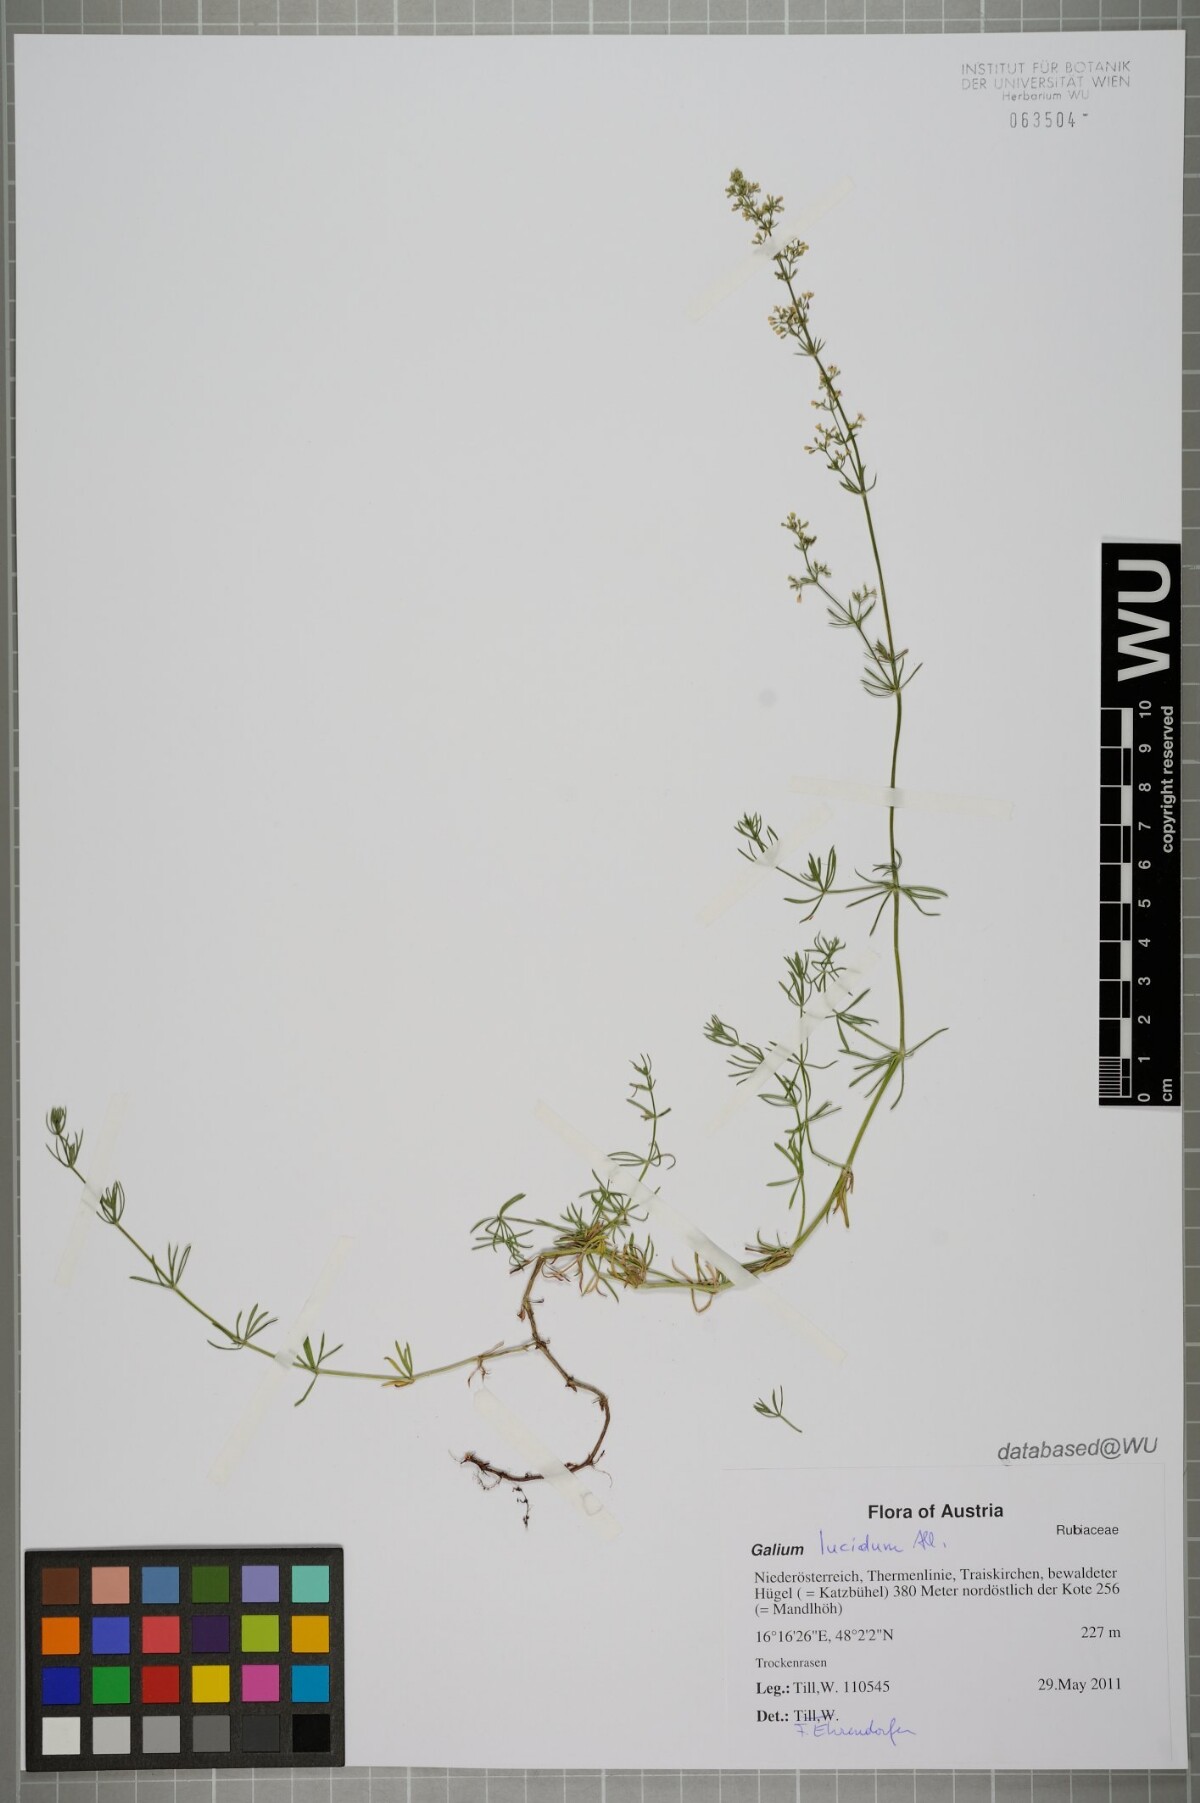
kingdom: Plantae
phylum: Tracheophyta
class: Magnoliopsida
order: Gentianales
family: Rubiaceae
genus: Galium
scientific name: Galium lucidum
